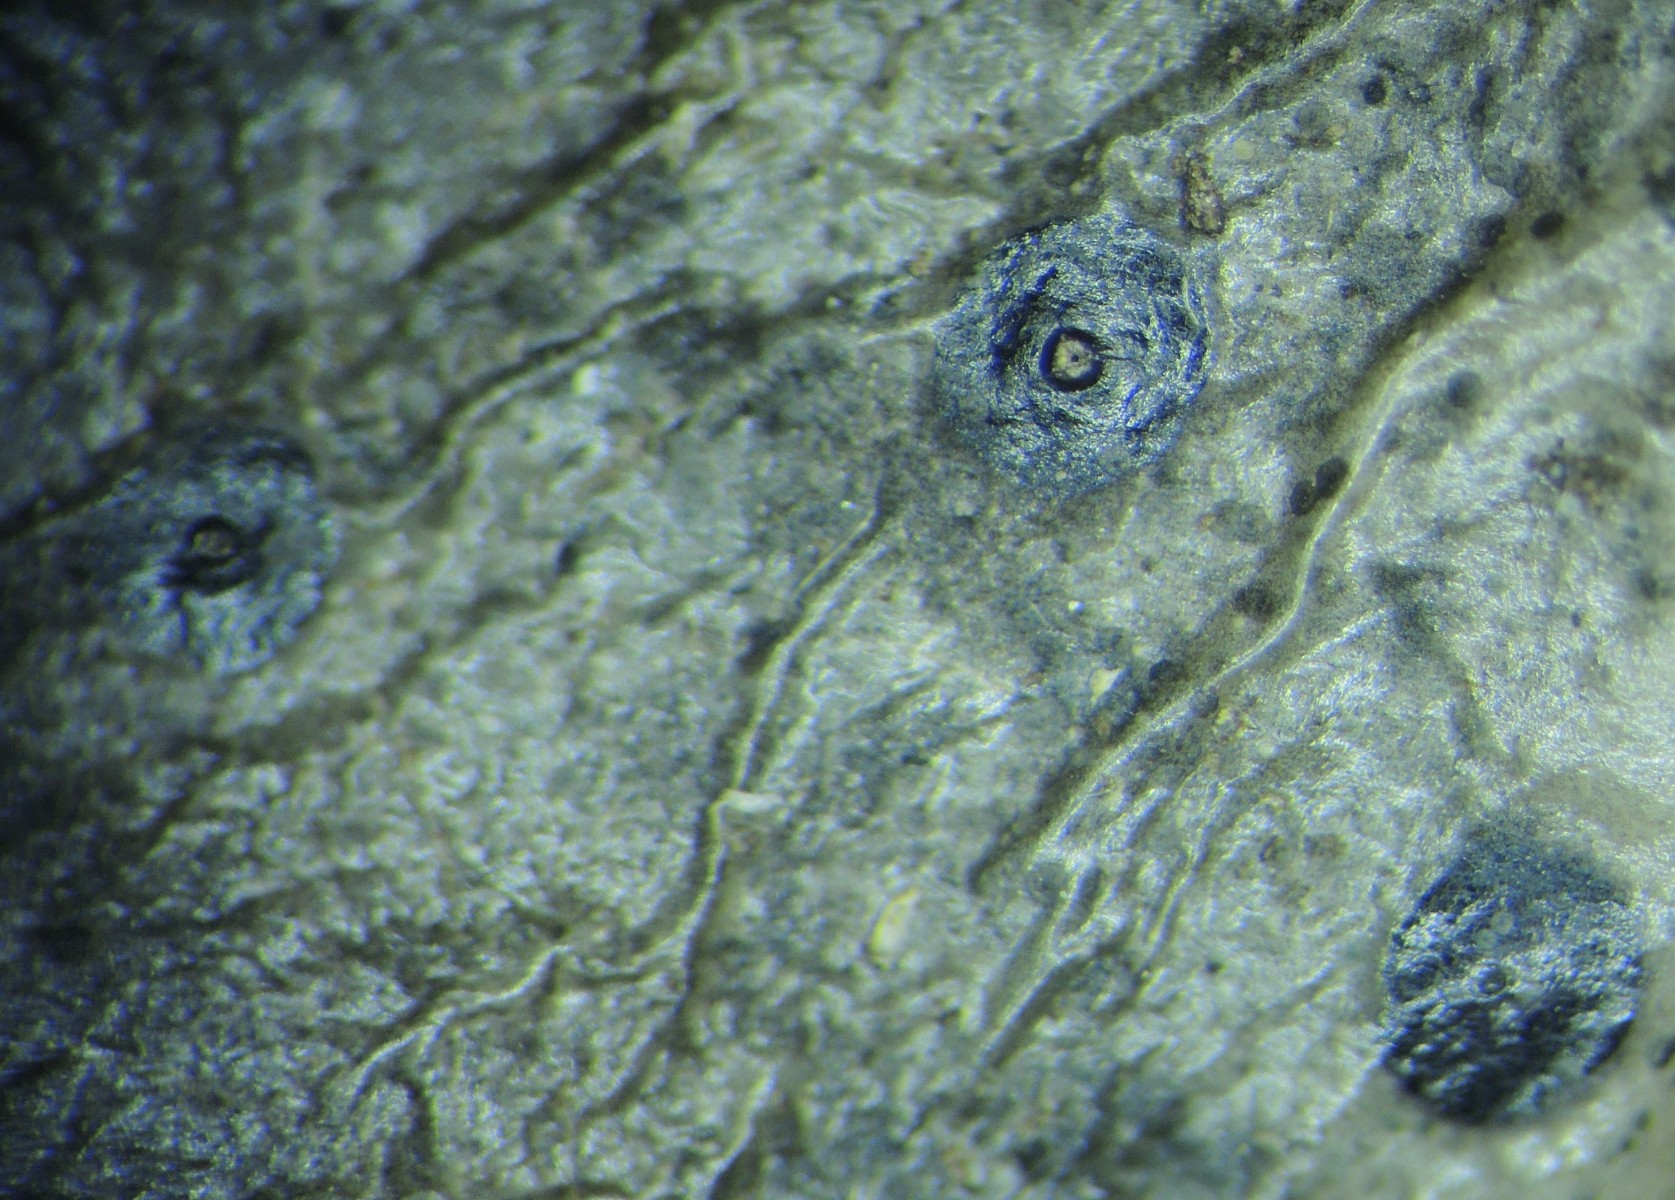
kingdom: Fungi
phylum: Ascomycota
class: Leotiomycetes
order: Phacidiales
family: Phacidiaceae
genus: Phacidium
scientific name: Phacidium lauri
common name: kristtorn-tandskive
